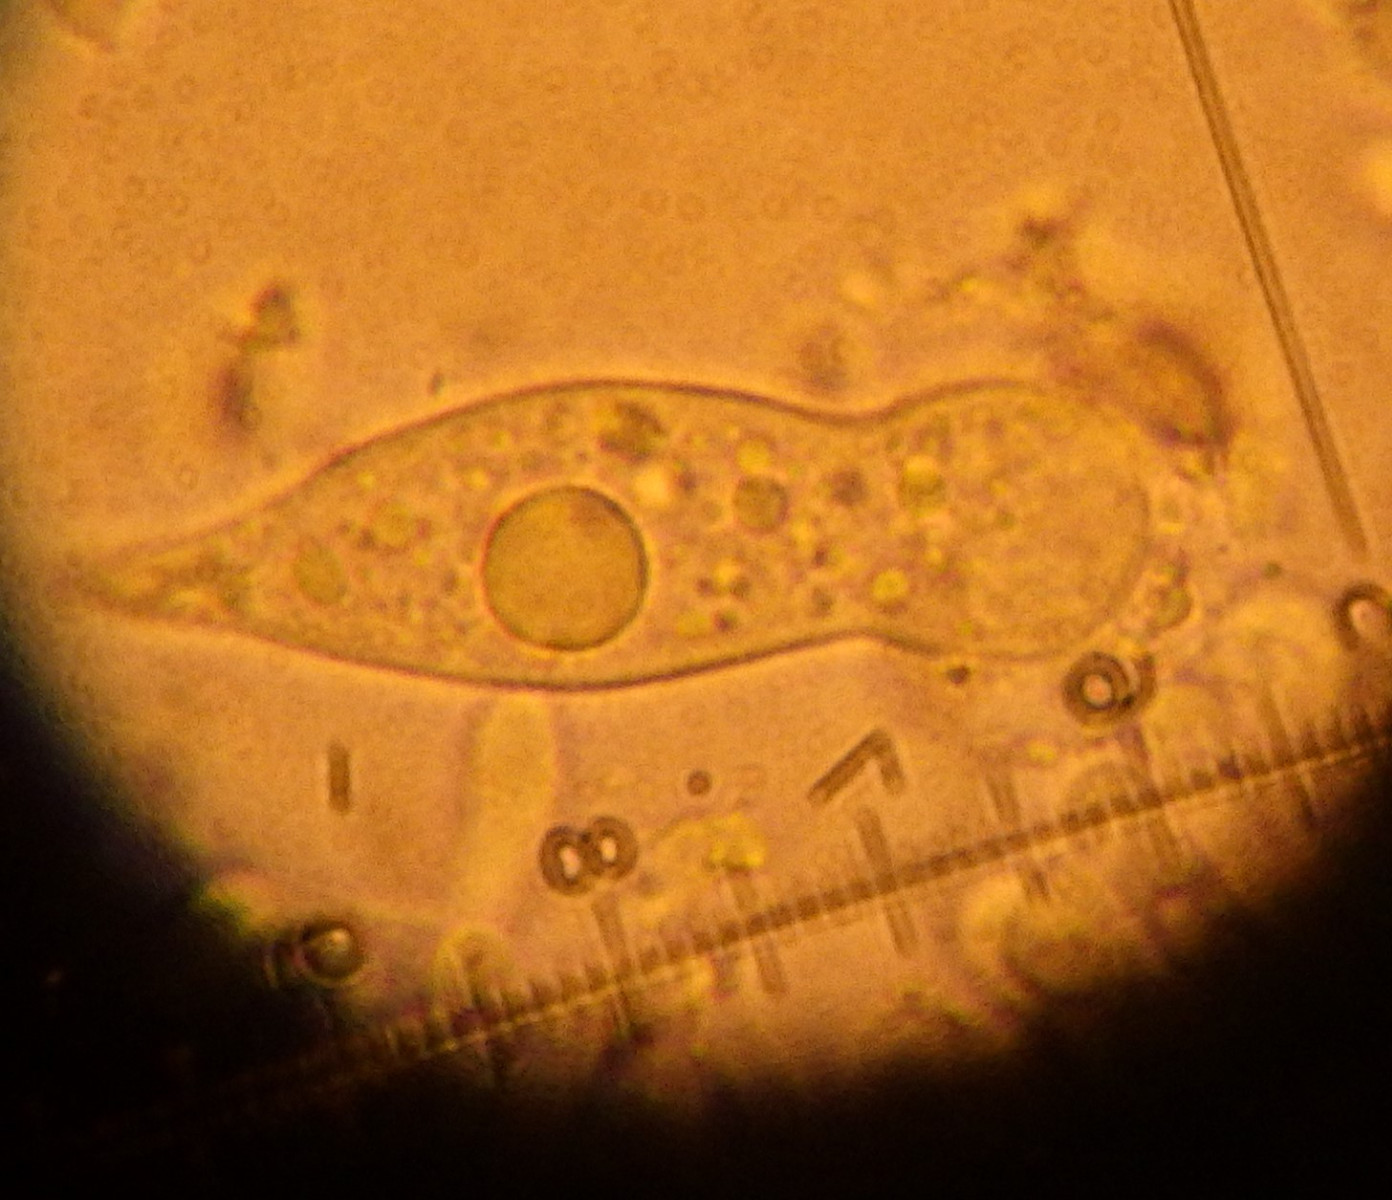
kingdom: Fungi
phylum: Basidiomycota
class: Agaricomycetes
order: Agaricales
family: Physalacriaceae
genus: Strobilurus
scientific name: Strobilurus stephanocystis
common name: fyrre-koglehat
